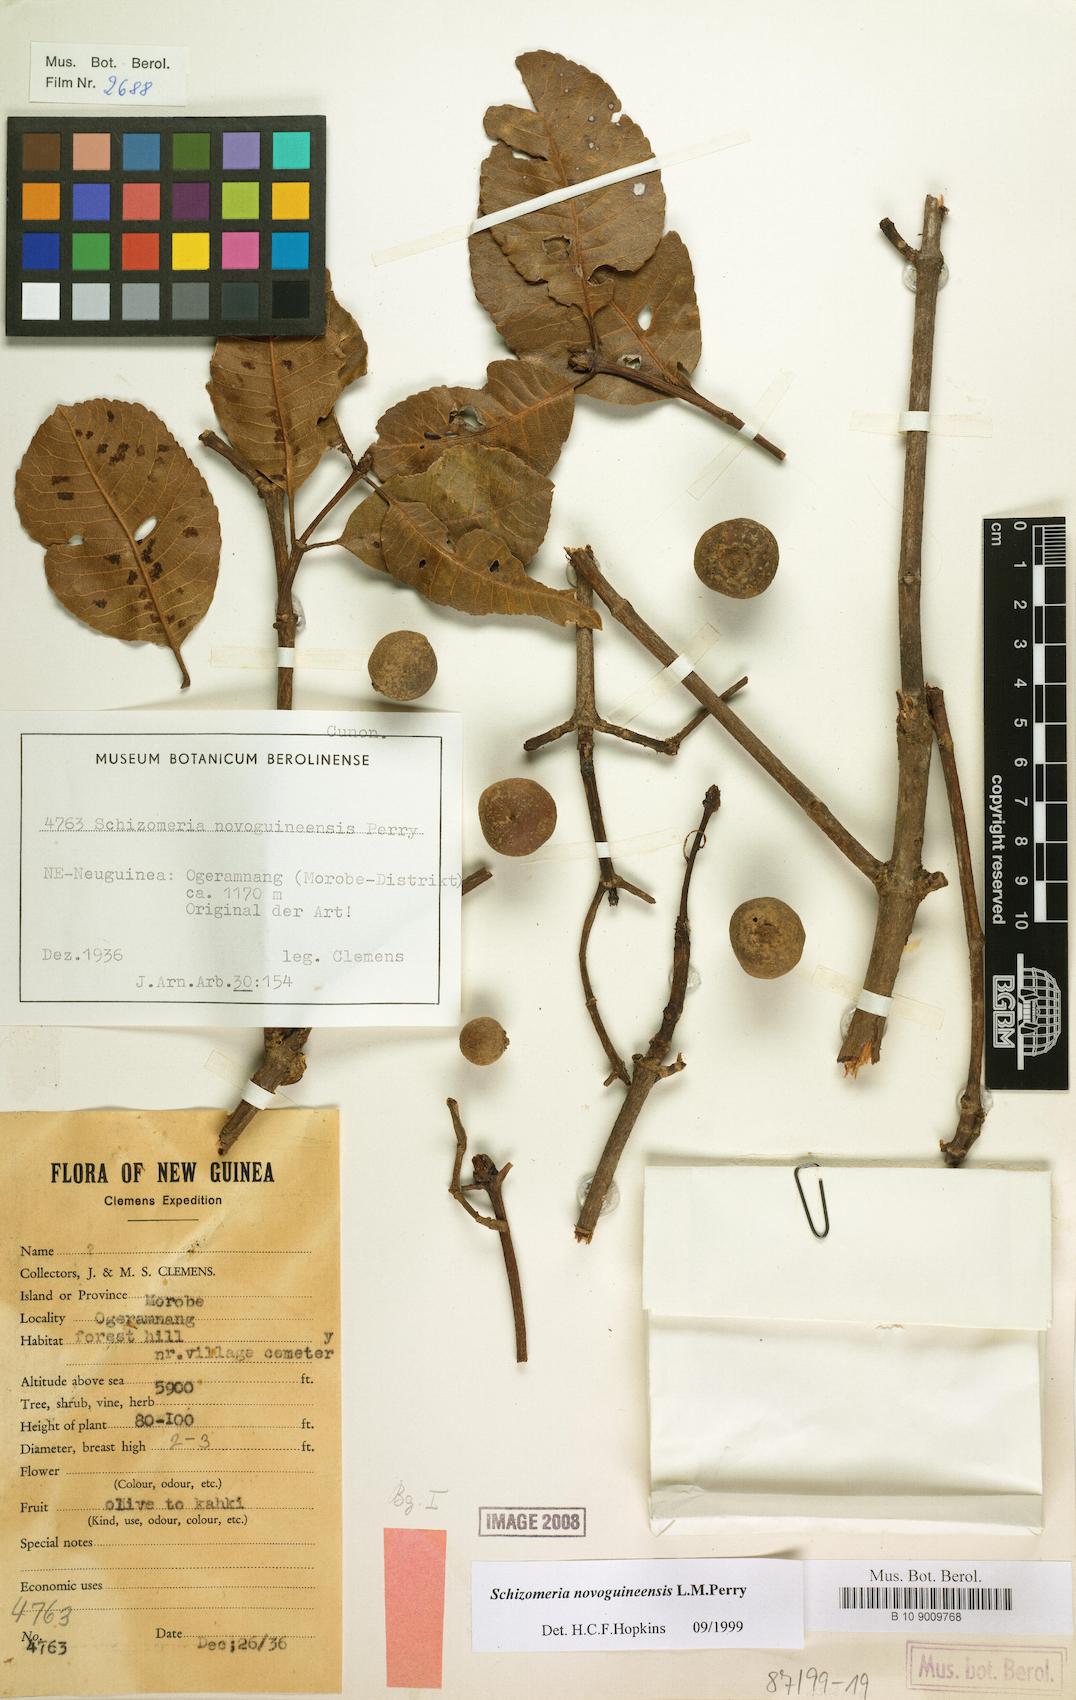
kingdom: Plantae
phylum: Tracheophyta
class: Magnoliopsida
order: Oxalidales
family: Cunoniaceae
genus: Schizomeria
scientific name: Schizomeria novoguineensis
